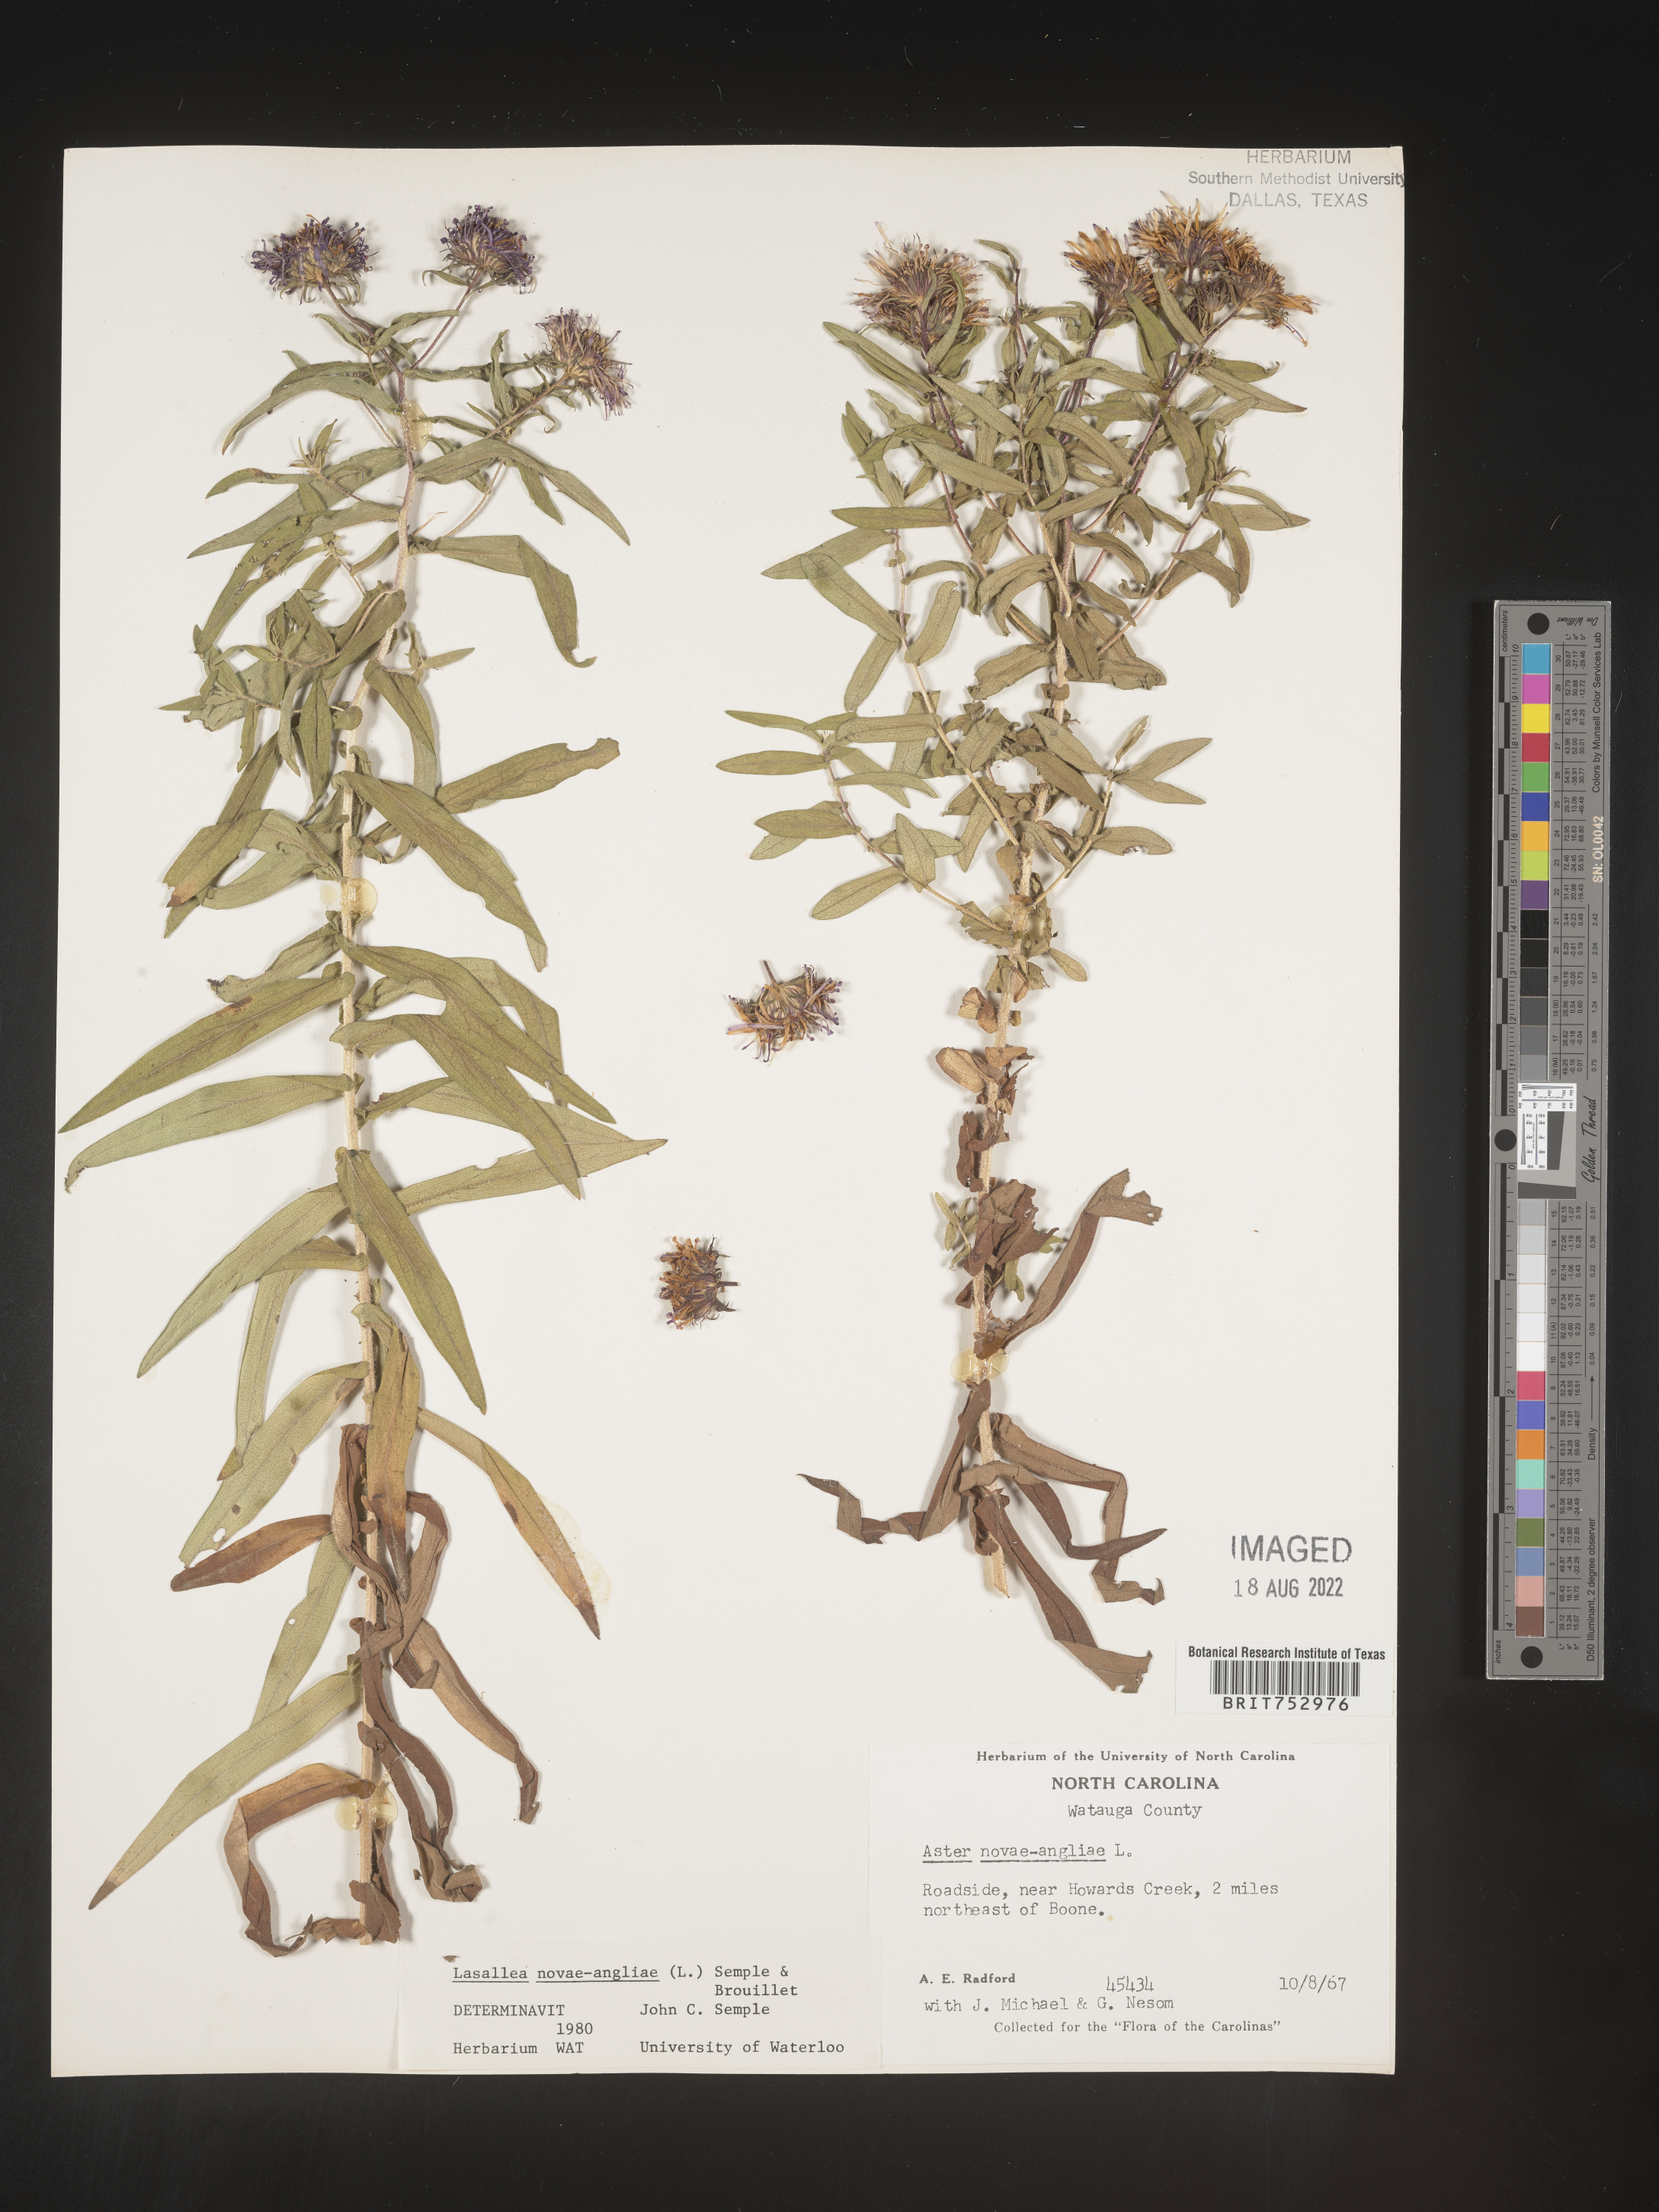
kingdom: Plantae
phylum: Tracheophyta
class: Magnoliopsida
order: Asterales
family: Asteraceae
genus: Symphyotrichum
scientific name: Symphyotrichum novae-angliae
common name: Michaelmas daisy
